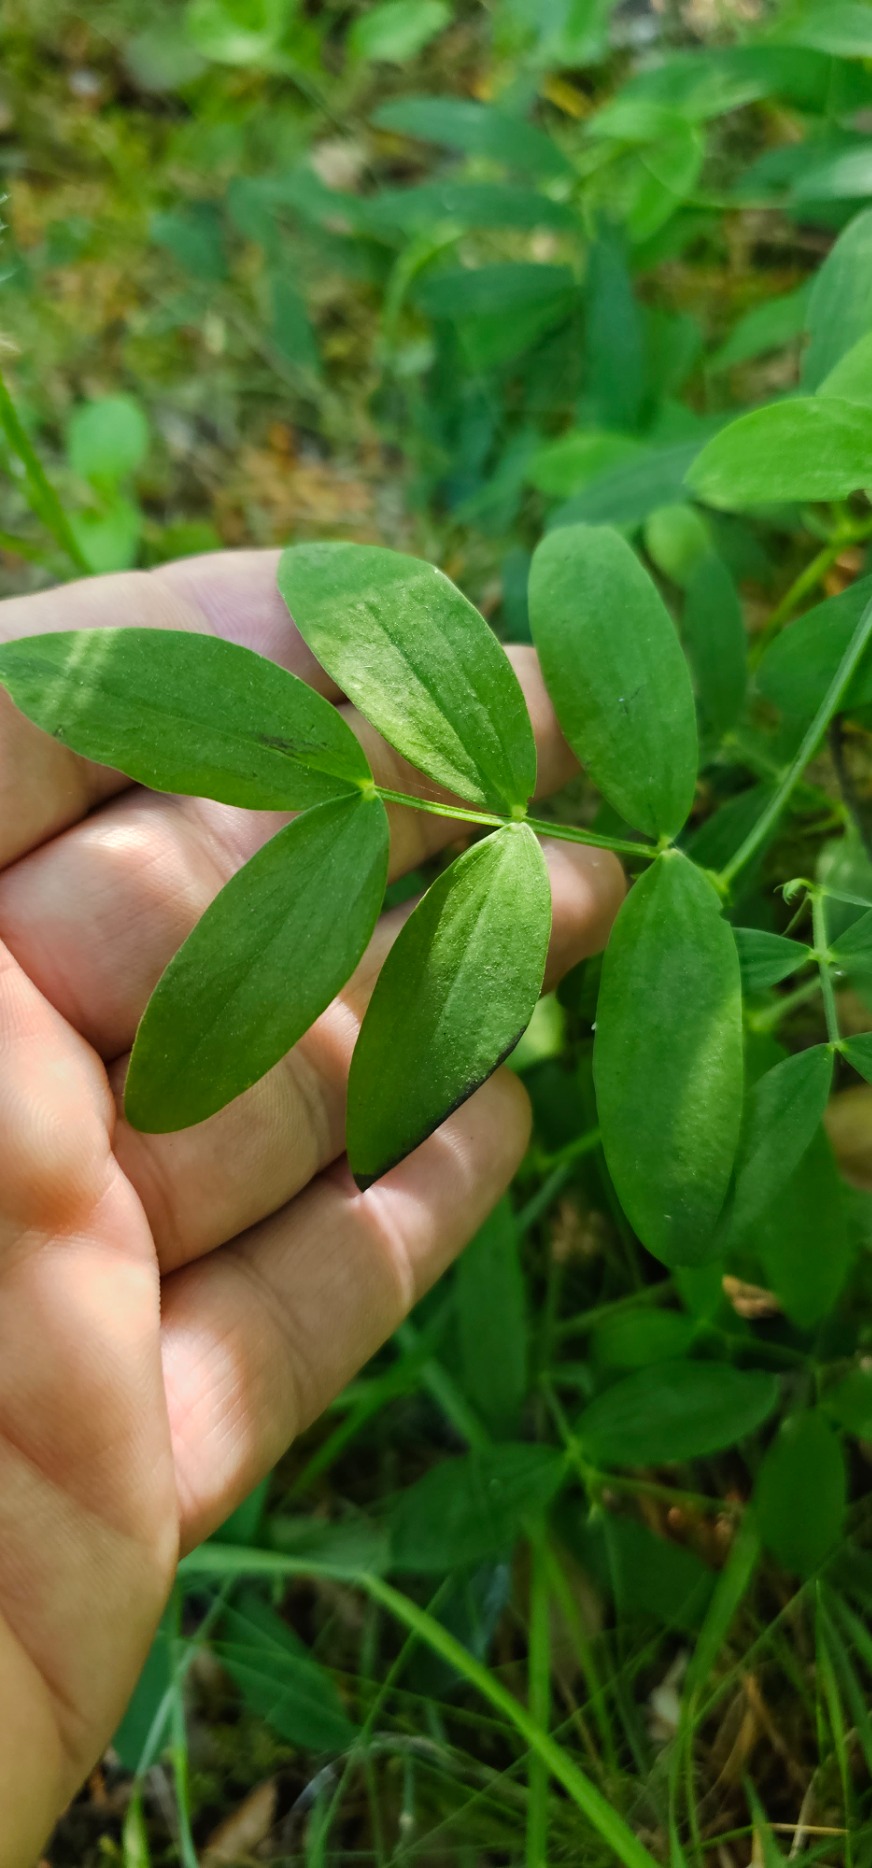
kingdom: Plantae
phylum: Tracheophyta
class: Magnoliopsida
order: Fabales
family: Fabaceae
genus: Lathyrus
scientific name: Lathyrus linifolius
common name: Krat-fladbælg
